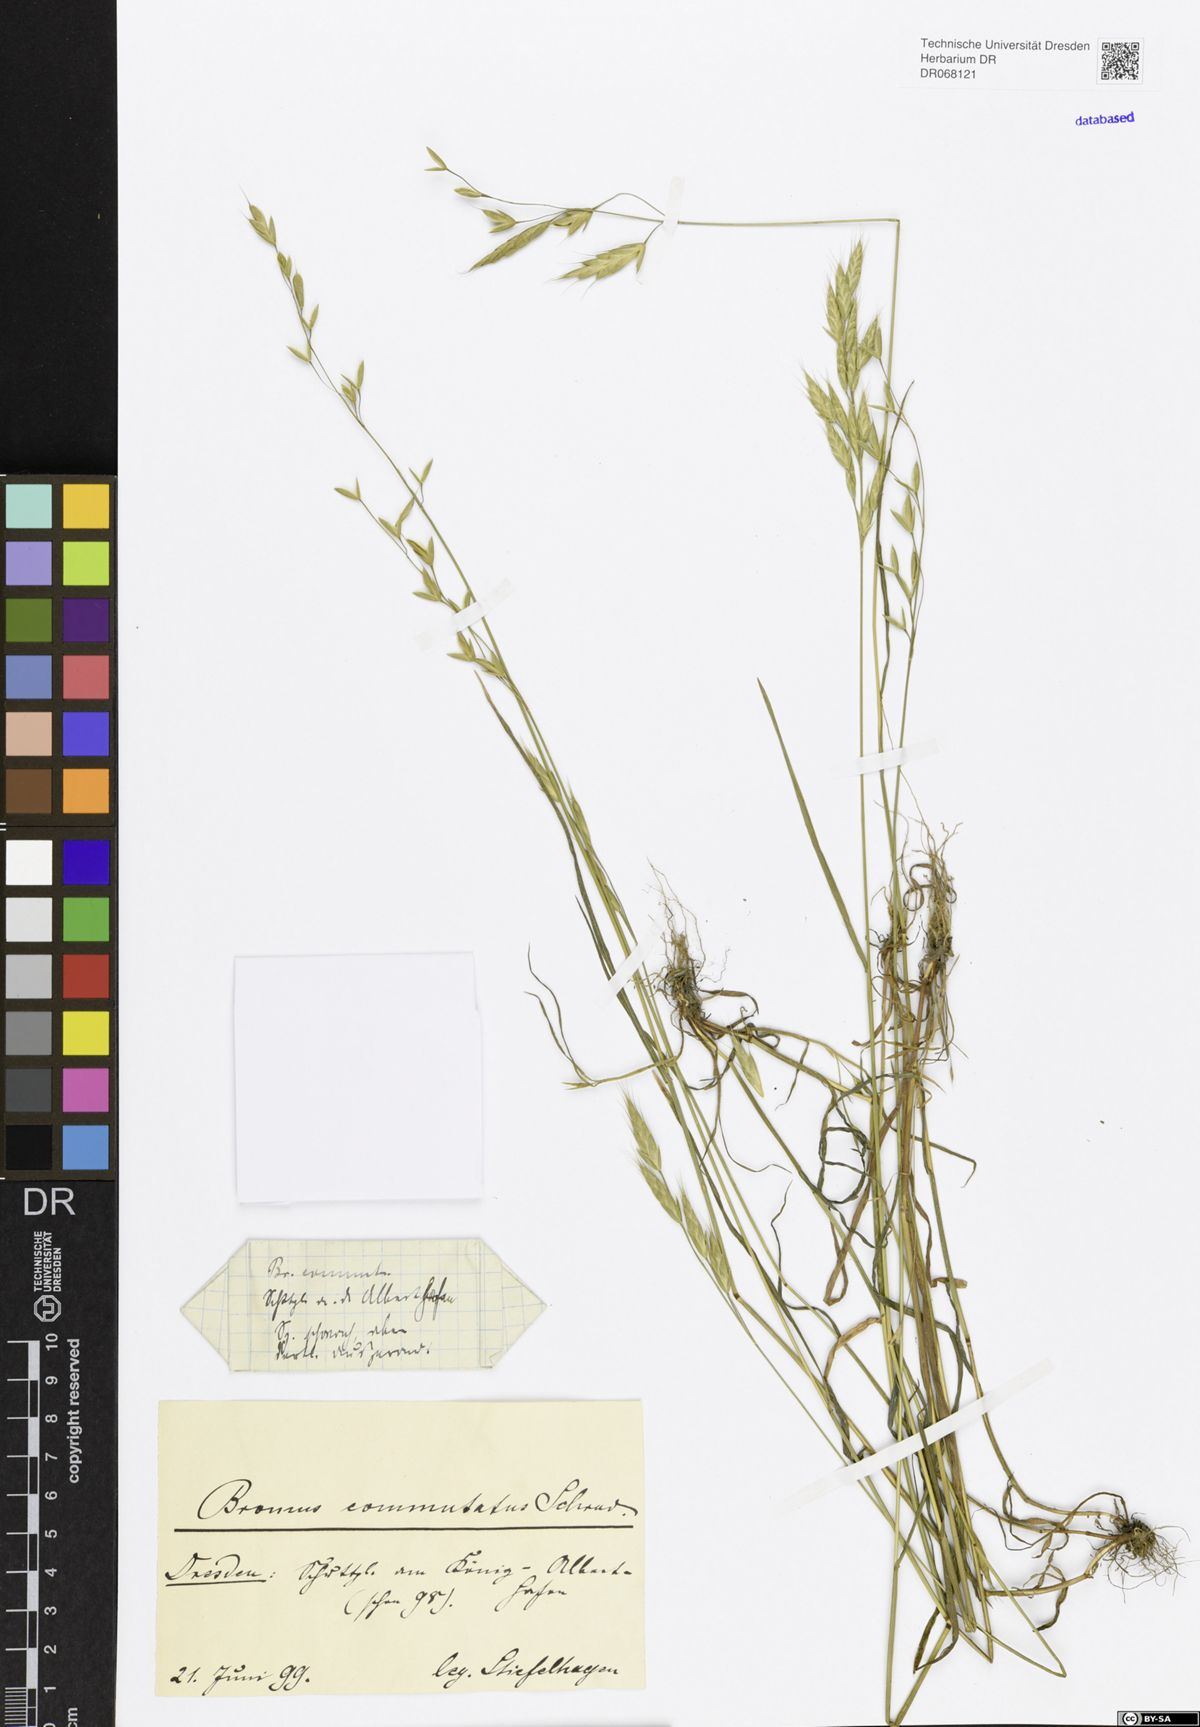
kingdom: Plantae
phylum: Tracheophyta
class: Liliopsida
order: Poales
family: Poaceae
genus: Bromus
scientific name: Bromus commutatus
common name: Meadow brome
